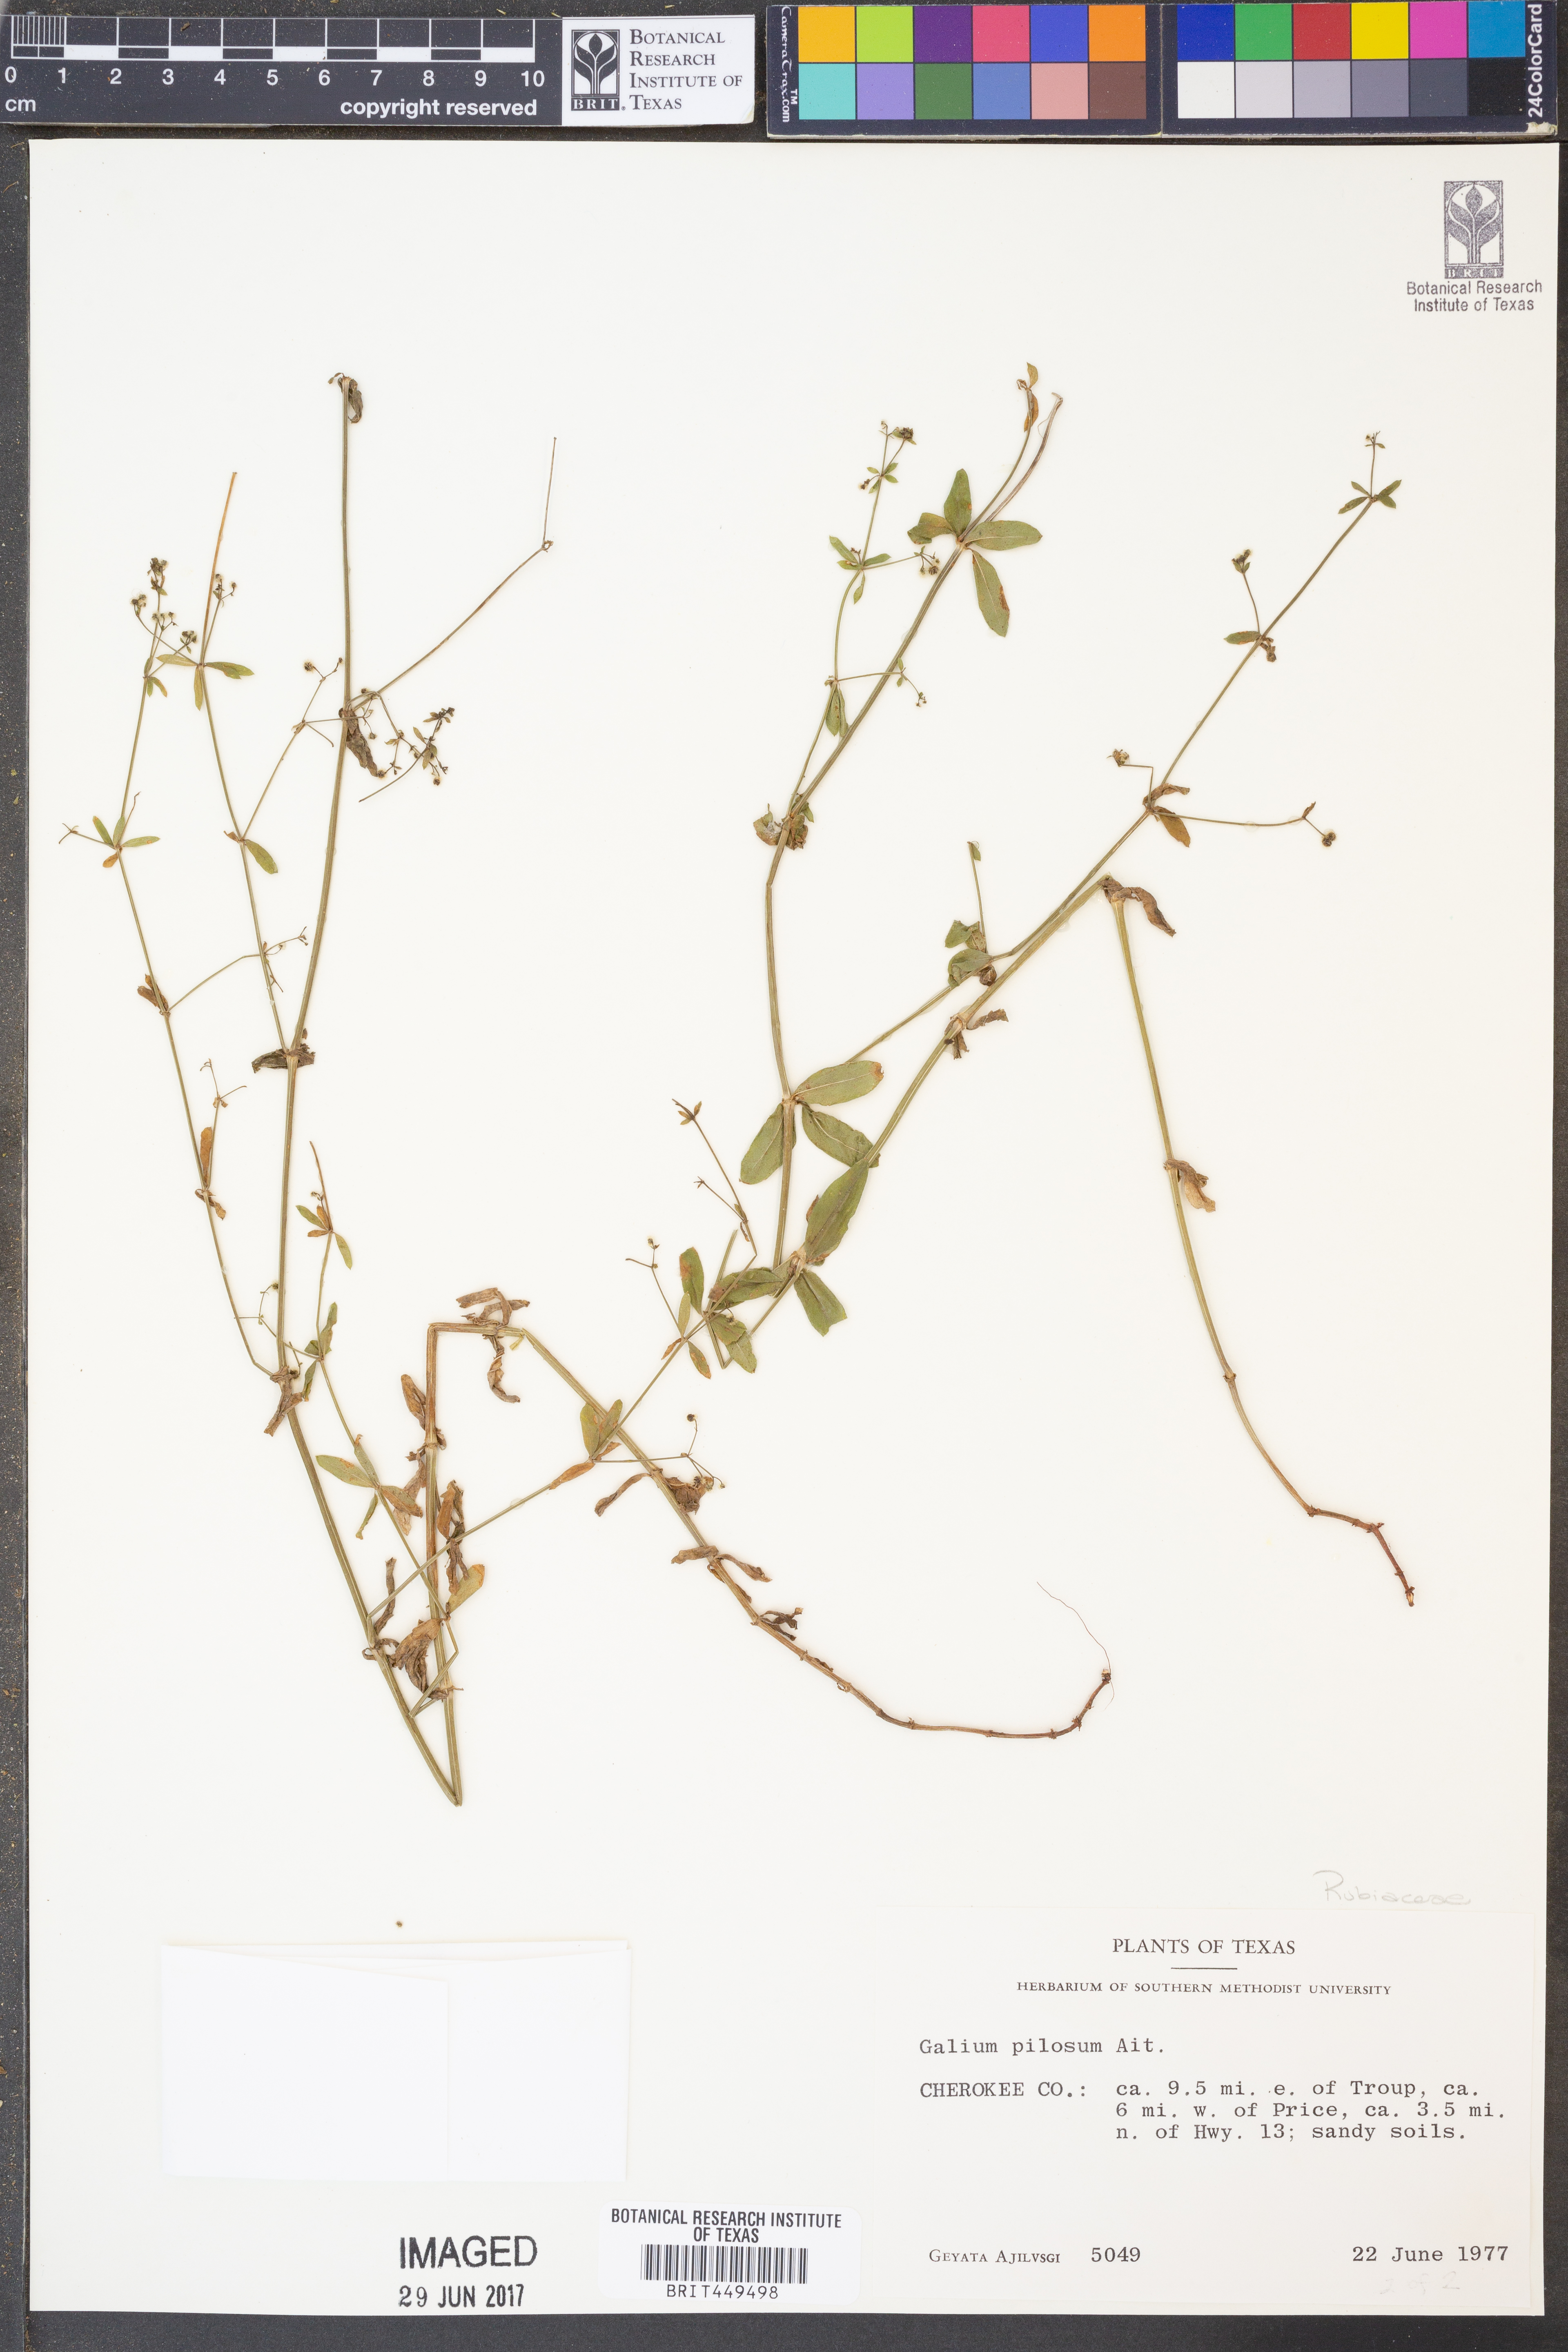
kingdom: Plantae
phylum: Tracheophyta
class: Magnoliopsida
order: Gentianales
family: Rubiaceae
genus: Galium
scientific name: Galium pilosum
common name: Hairy bedstraw
